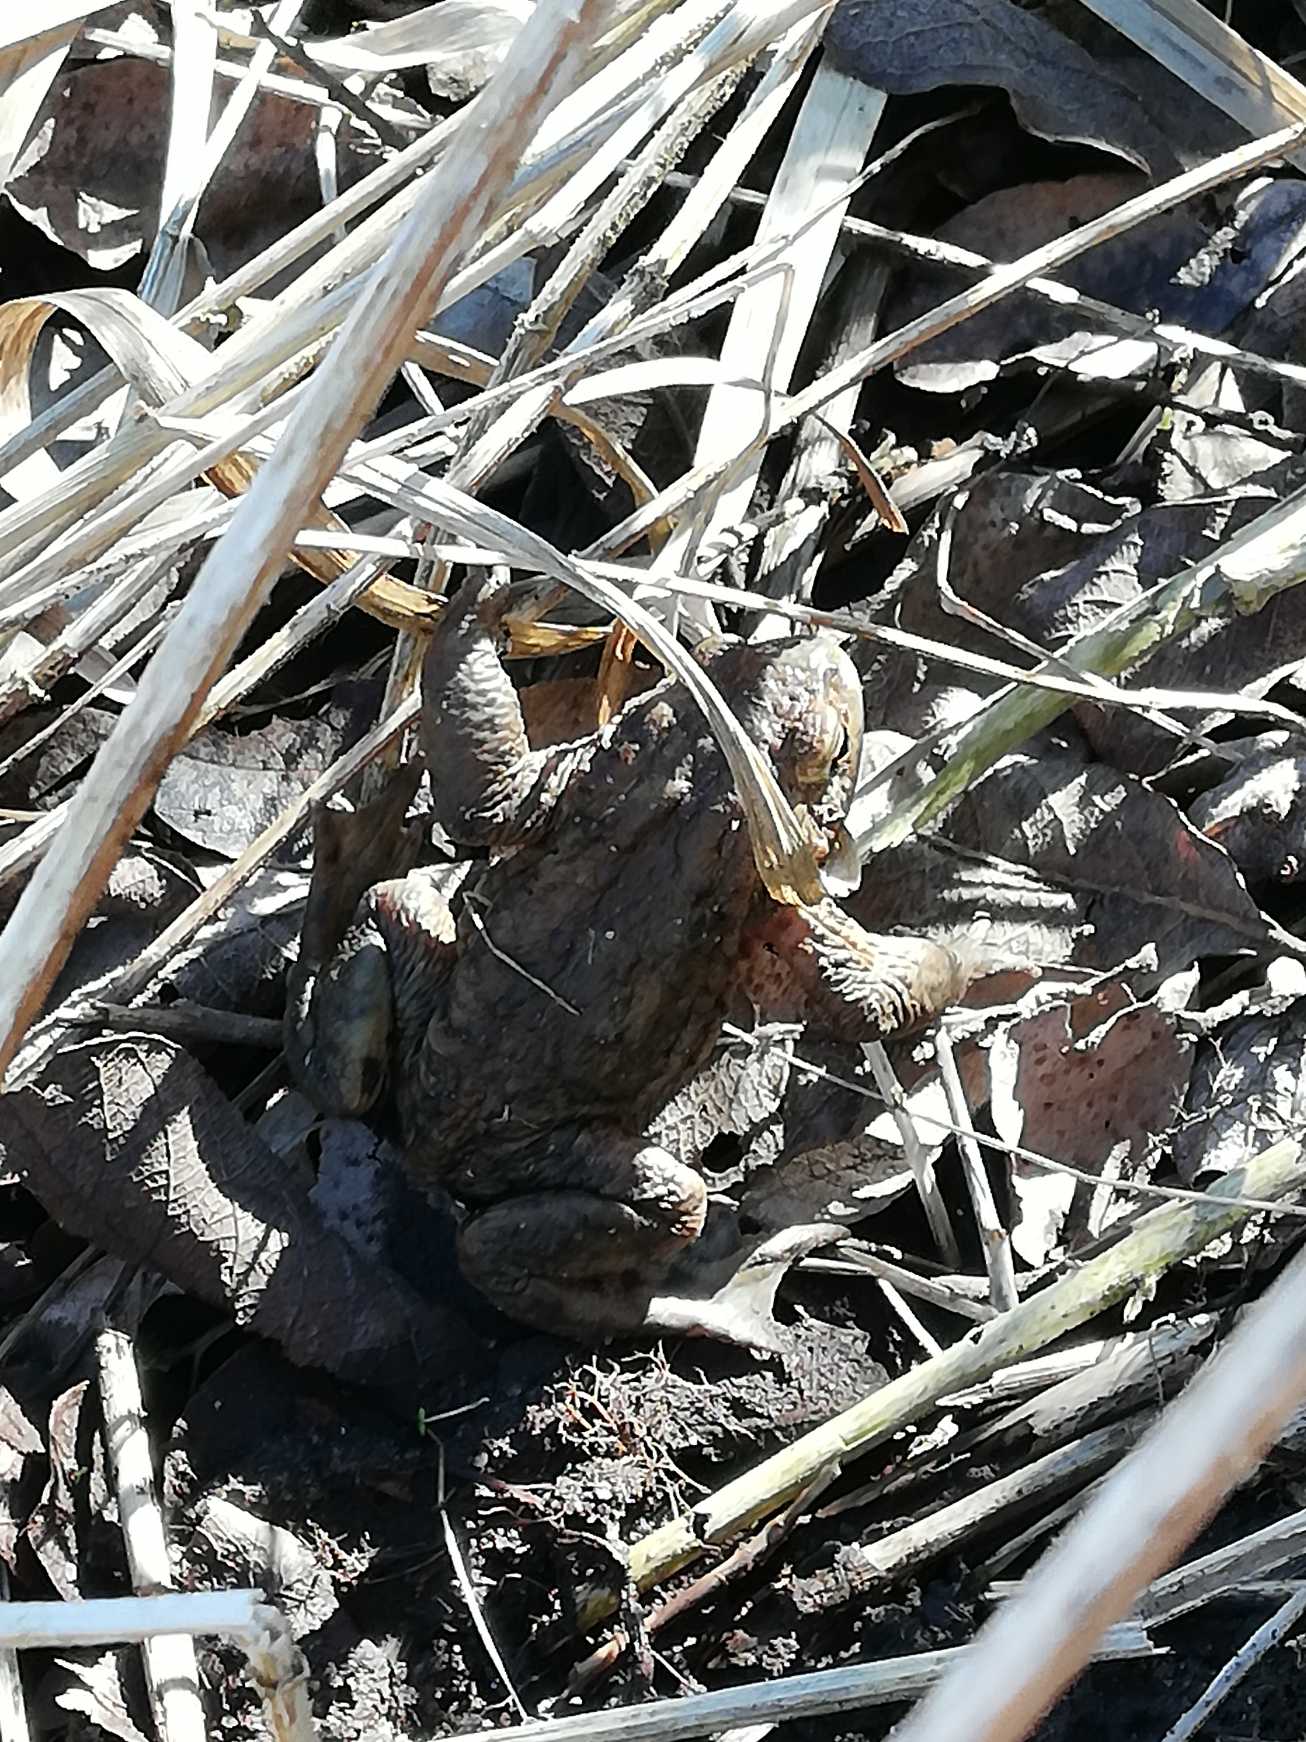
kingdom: Animalia
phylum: Chordata
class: Amphibia
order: Anura
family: Bufonidae
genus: Bufo
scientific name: Bufo bufo
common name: Skrubtudse
